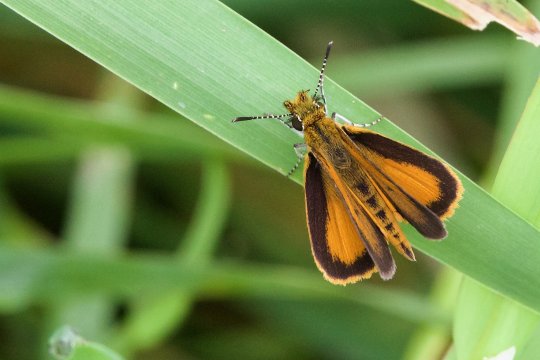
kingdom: Animalia
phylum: Arthropoda
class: Insecta
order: Lepidoptera
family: Hesperiidae
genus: Ancyloxypha
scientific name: Ancyloxypha numitor
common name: Least Skipper
